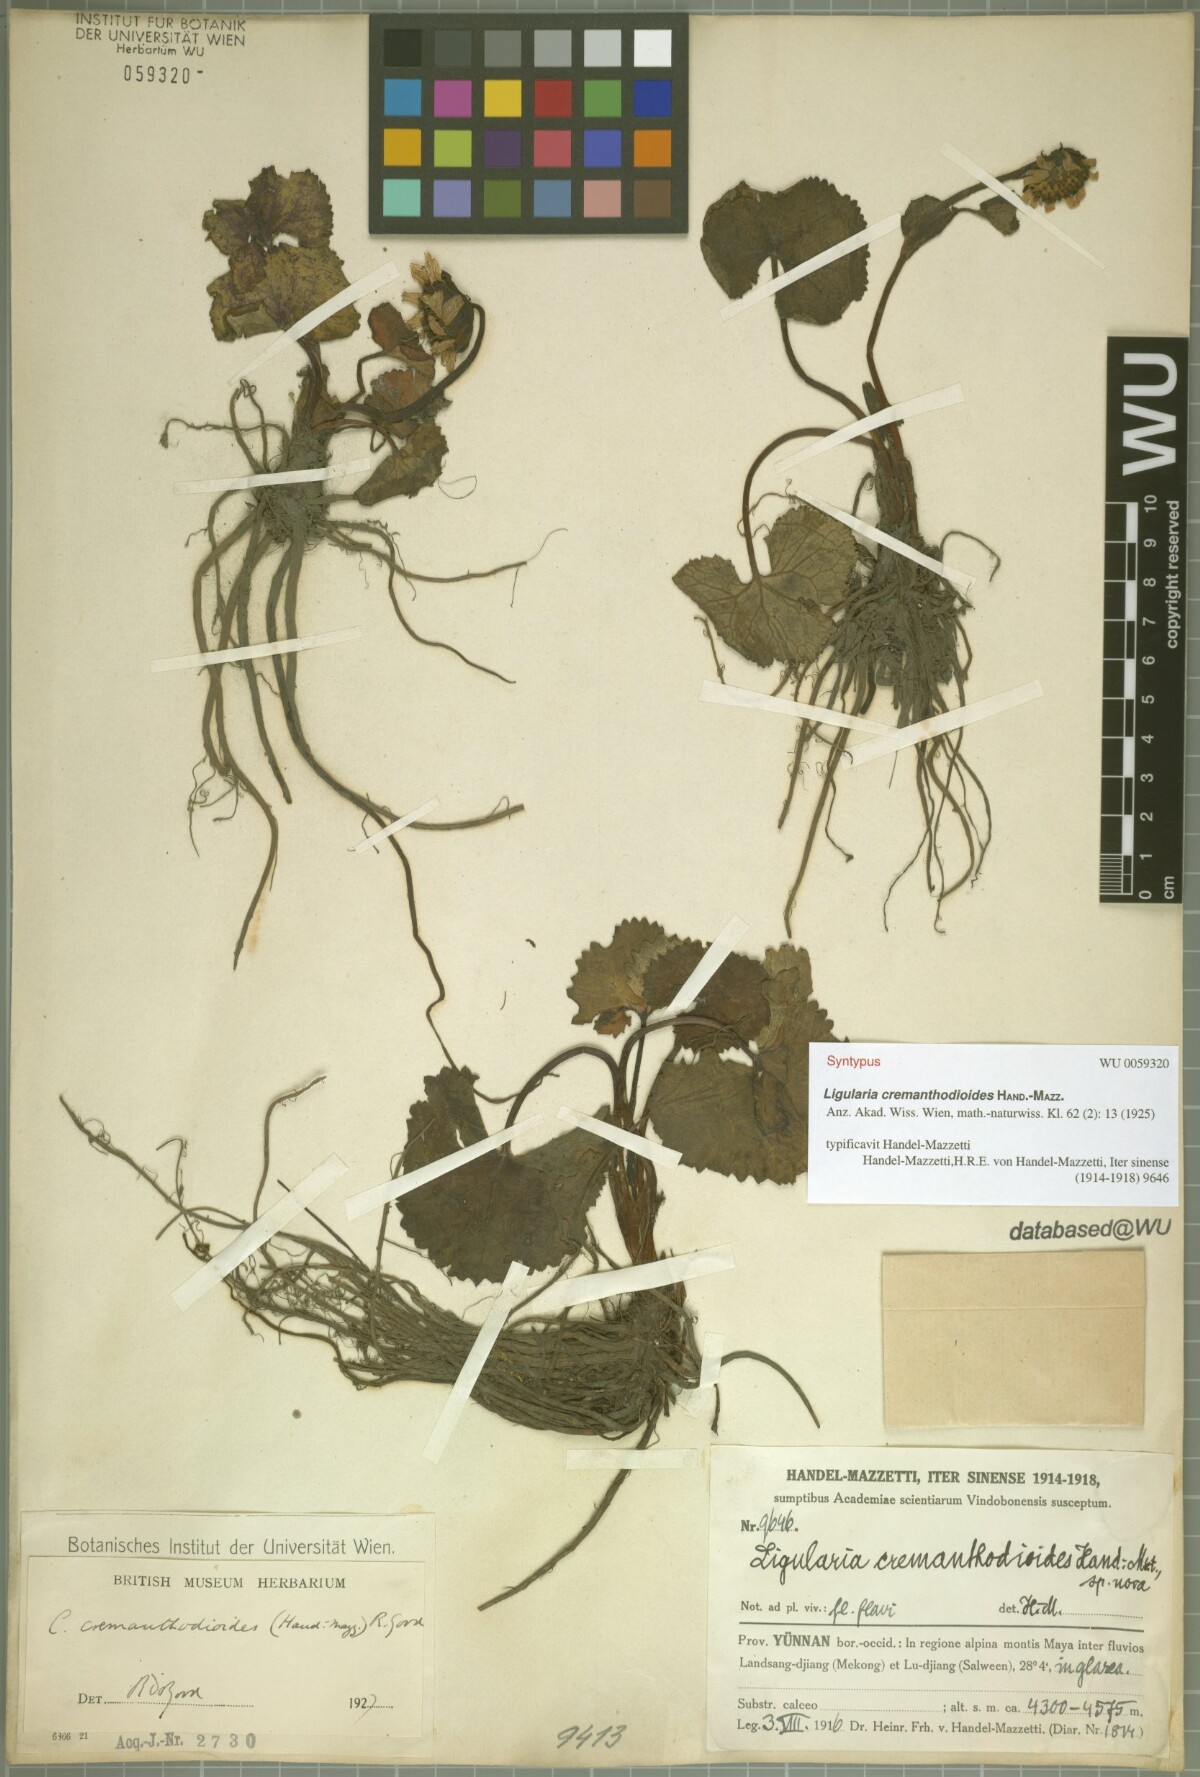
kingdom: Plantae
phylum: Tracheophyta
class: Magnoliopsida
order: Asterales
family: Asteraceae
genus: Ligularia
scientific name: Ligularia cremanthodioides
